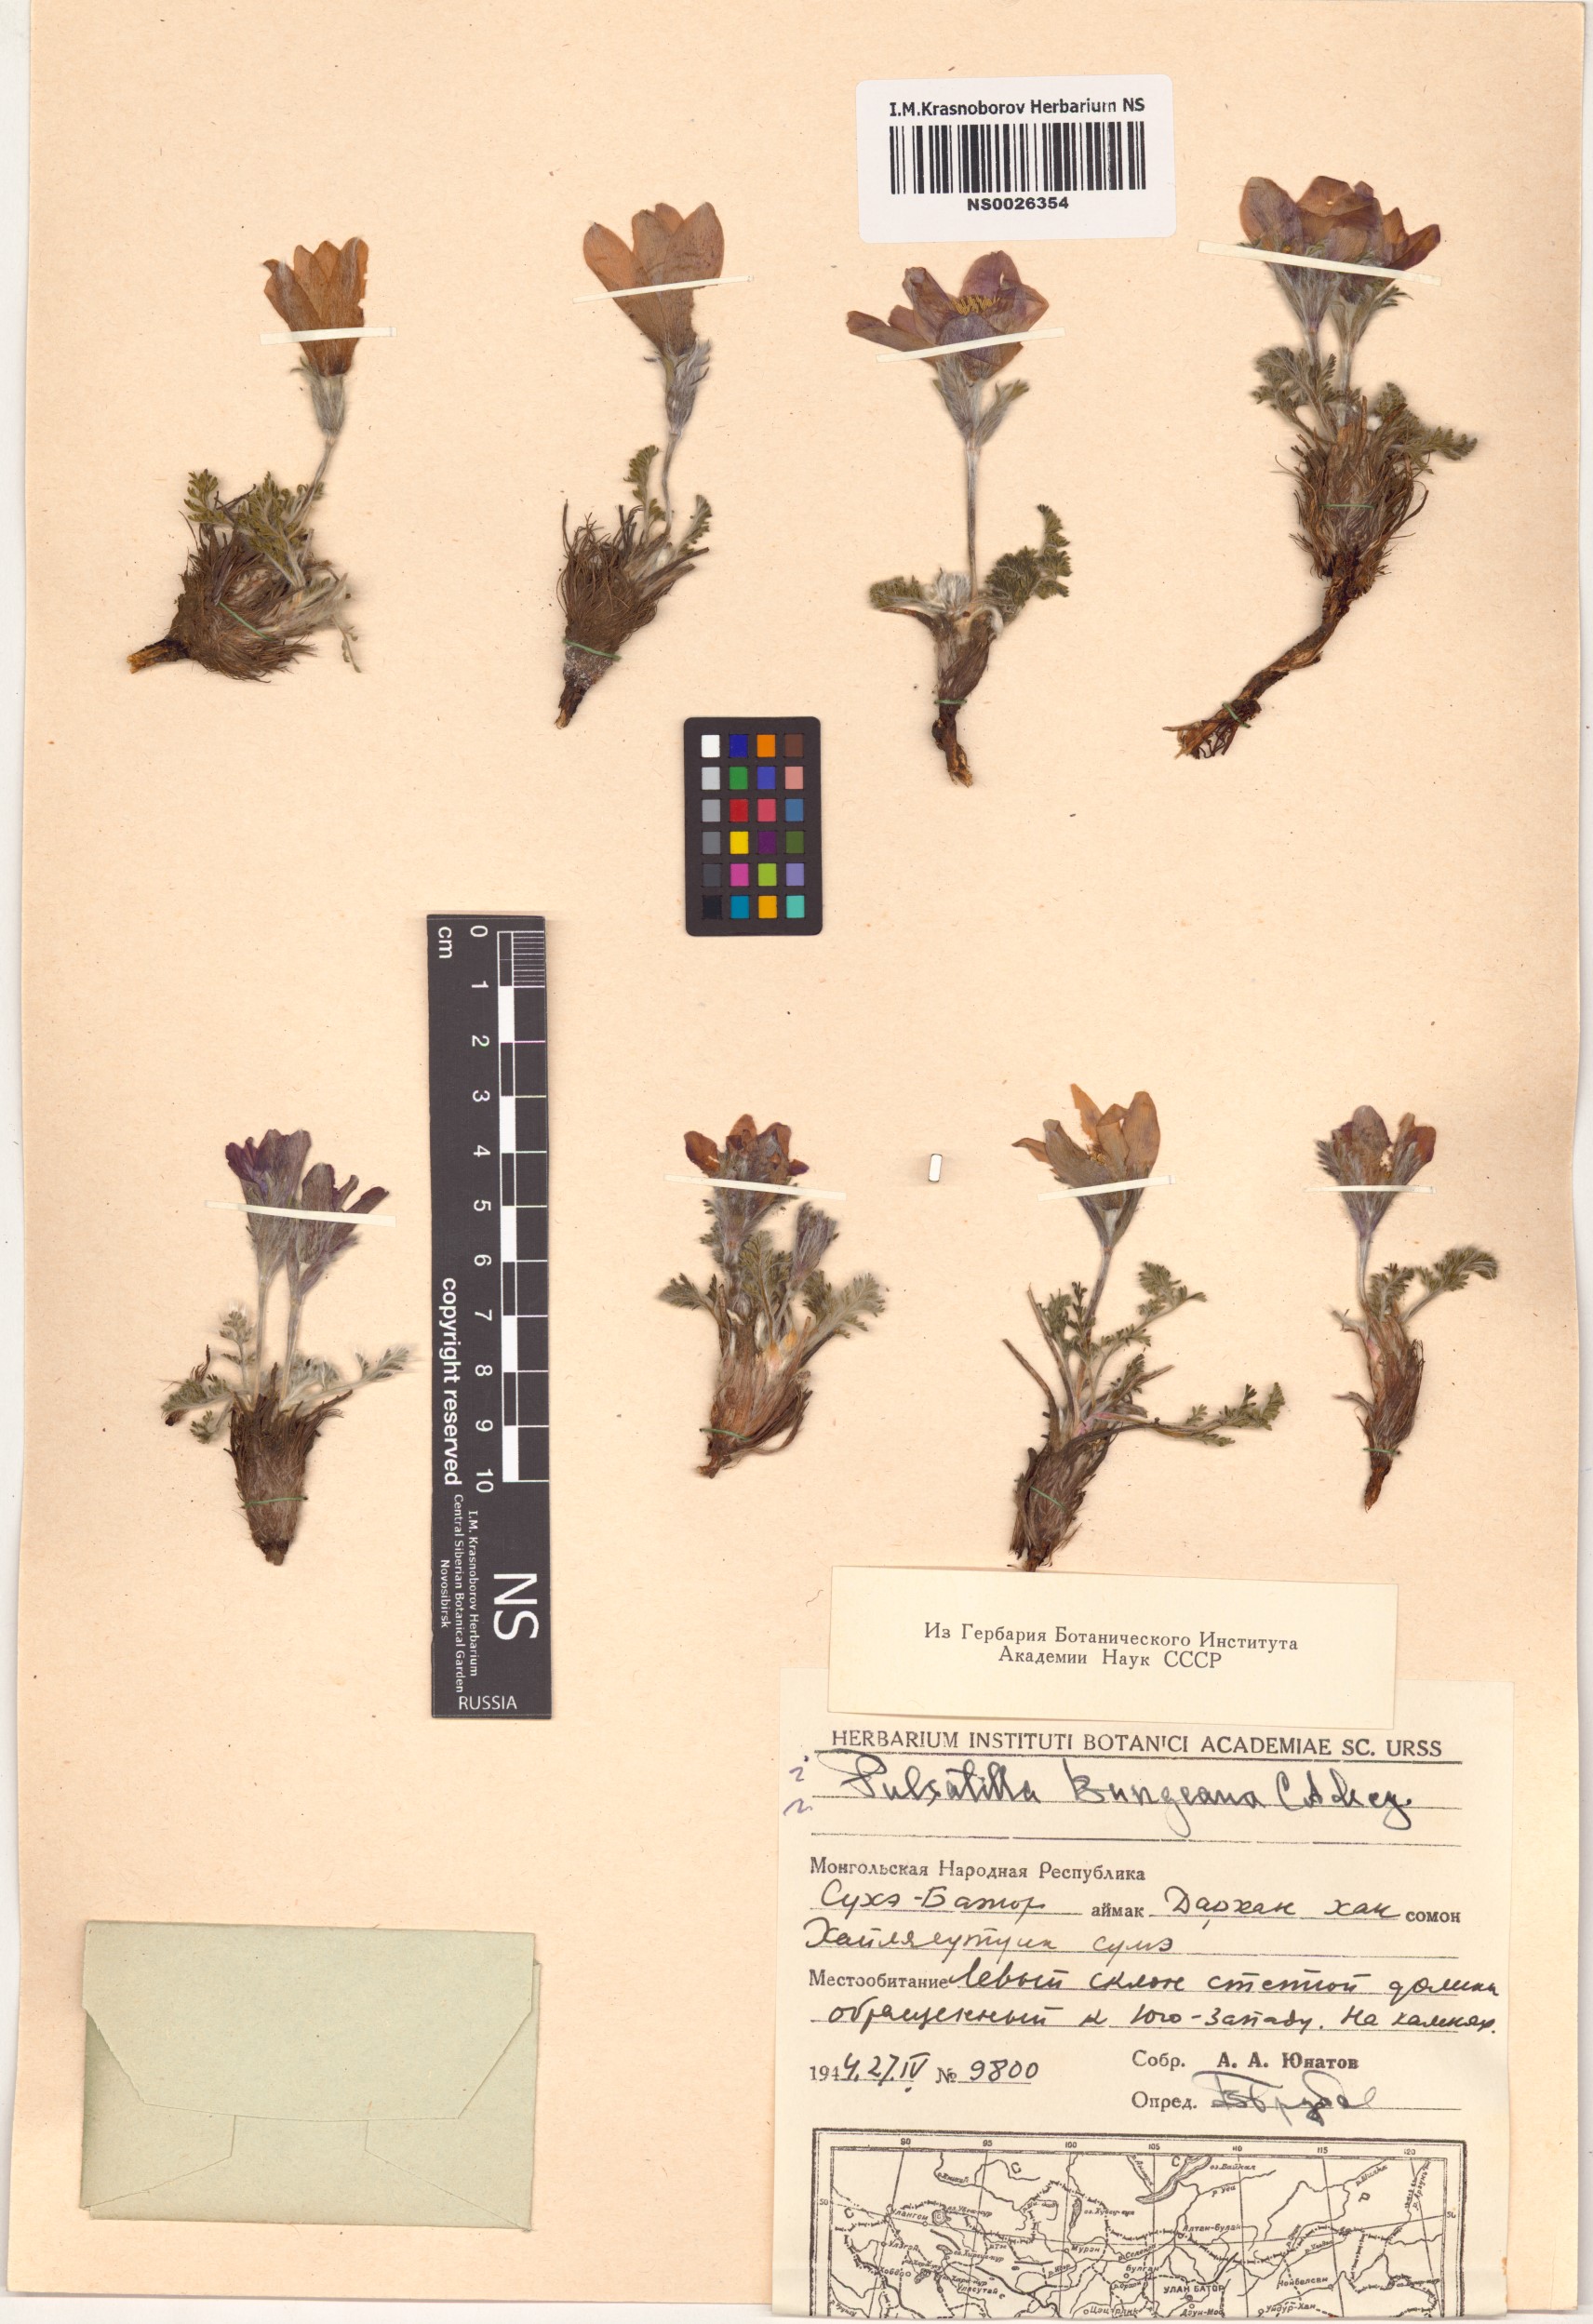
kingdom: Plantae
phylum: Tracheophyta
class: Magnoliopsida
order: Ranunculales
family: Ranunculaceae
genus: Pulsatilla
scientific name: Pulsatilla bungeana
